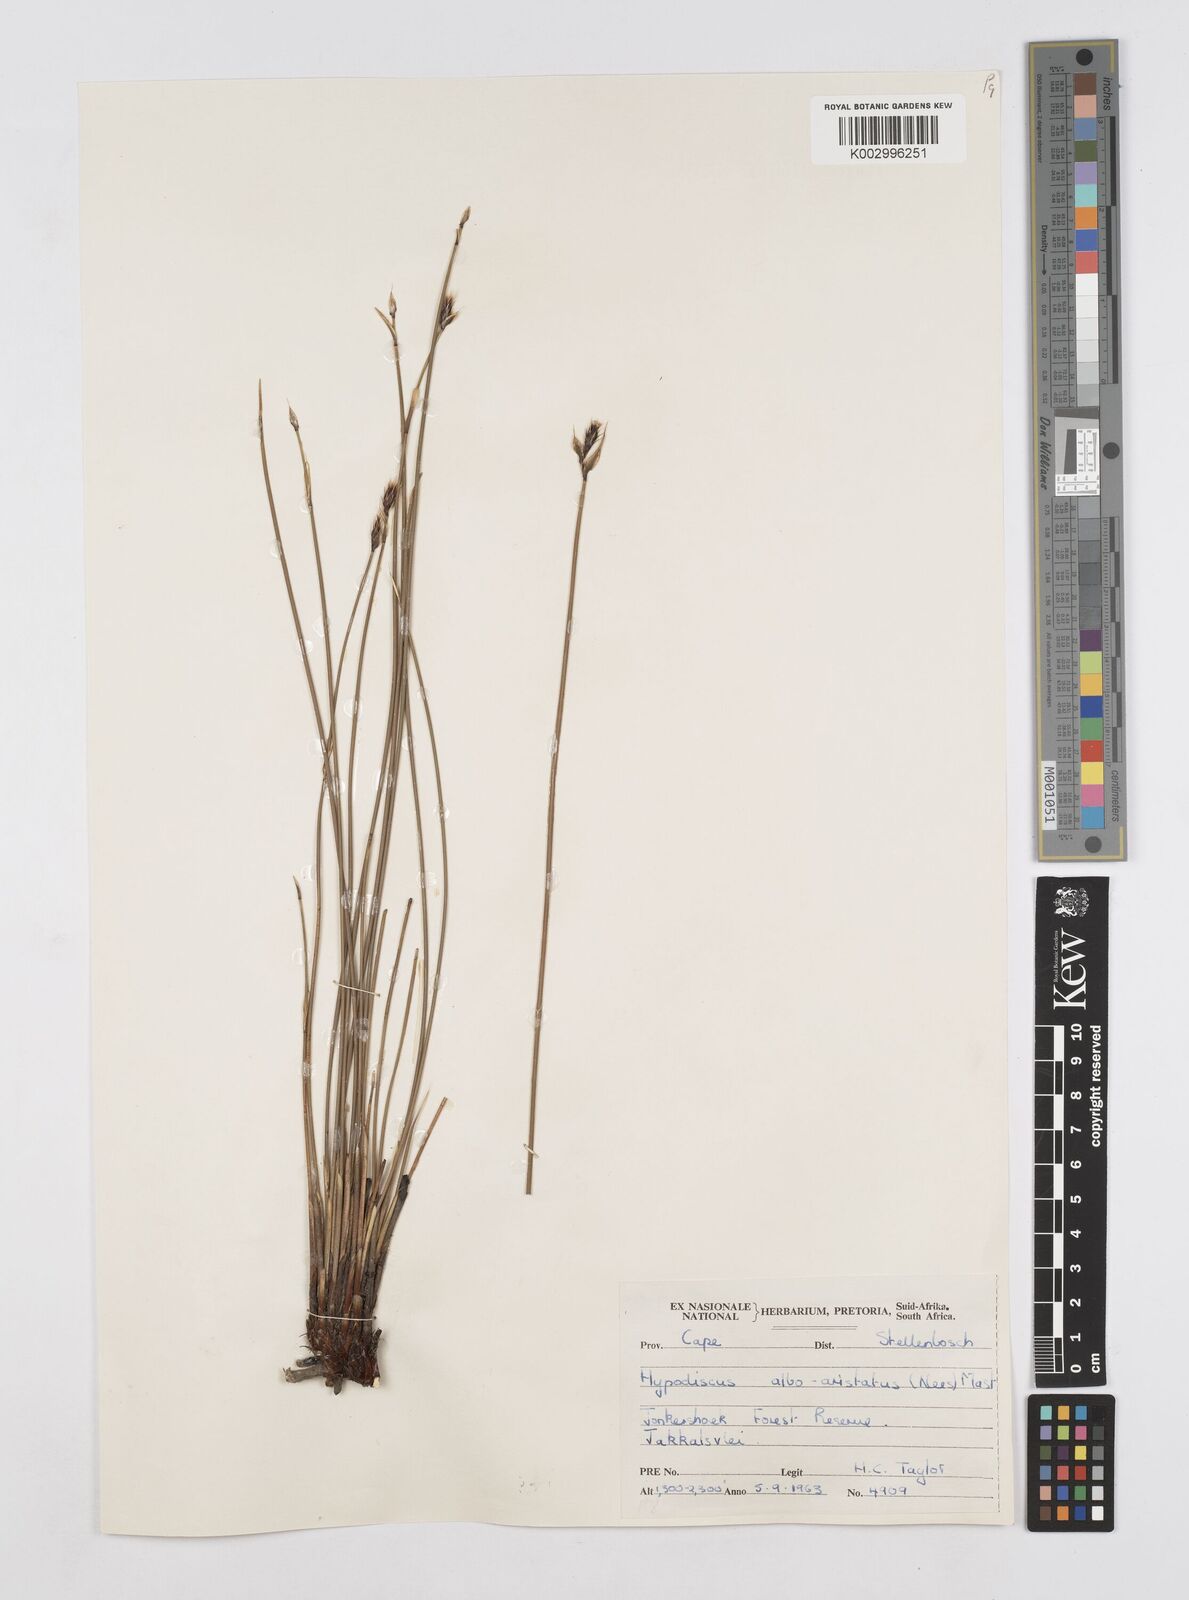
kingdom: Plantae
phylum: Tracheophyta
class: Liliopsida
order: Poales
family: Restionaceae
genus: Hypodiscus
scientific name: Hypodiscus alboaristatus
